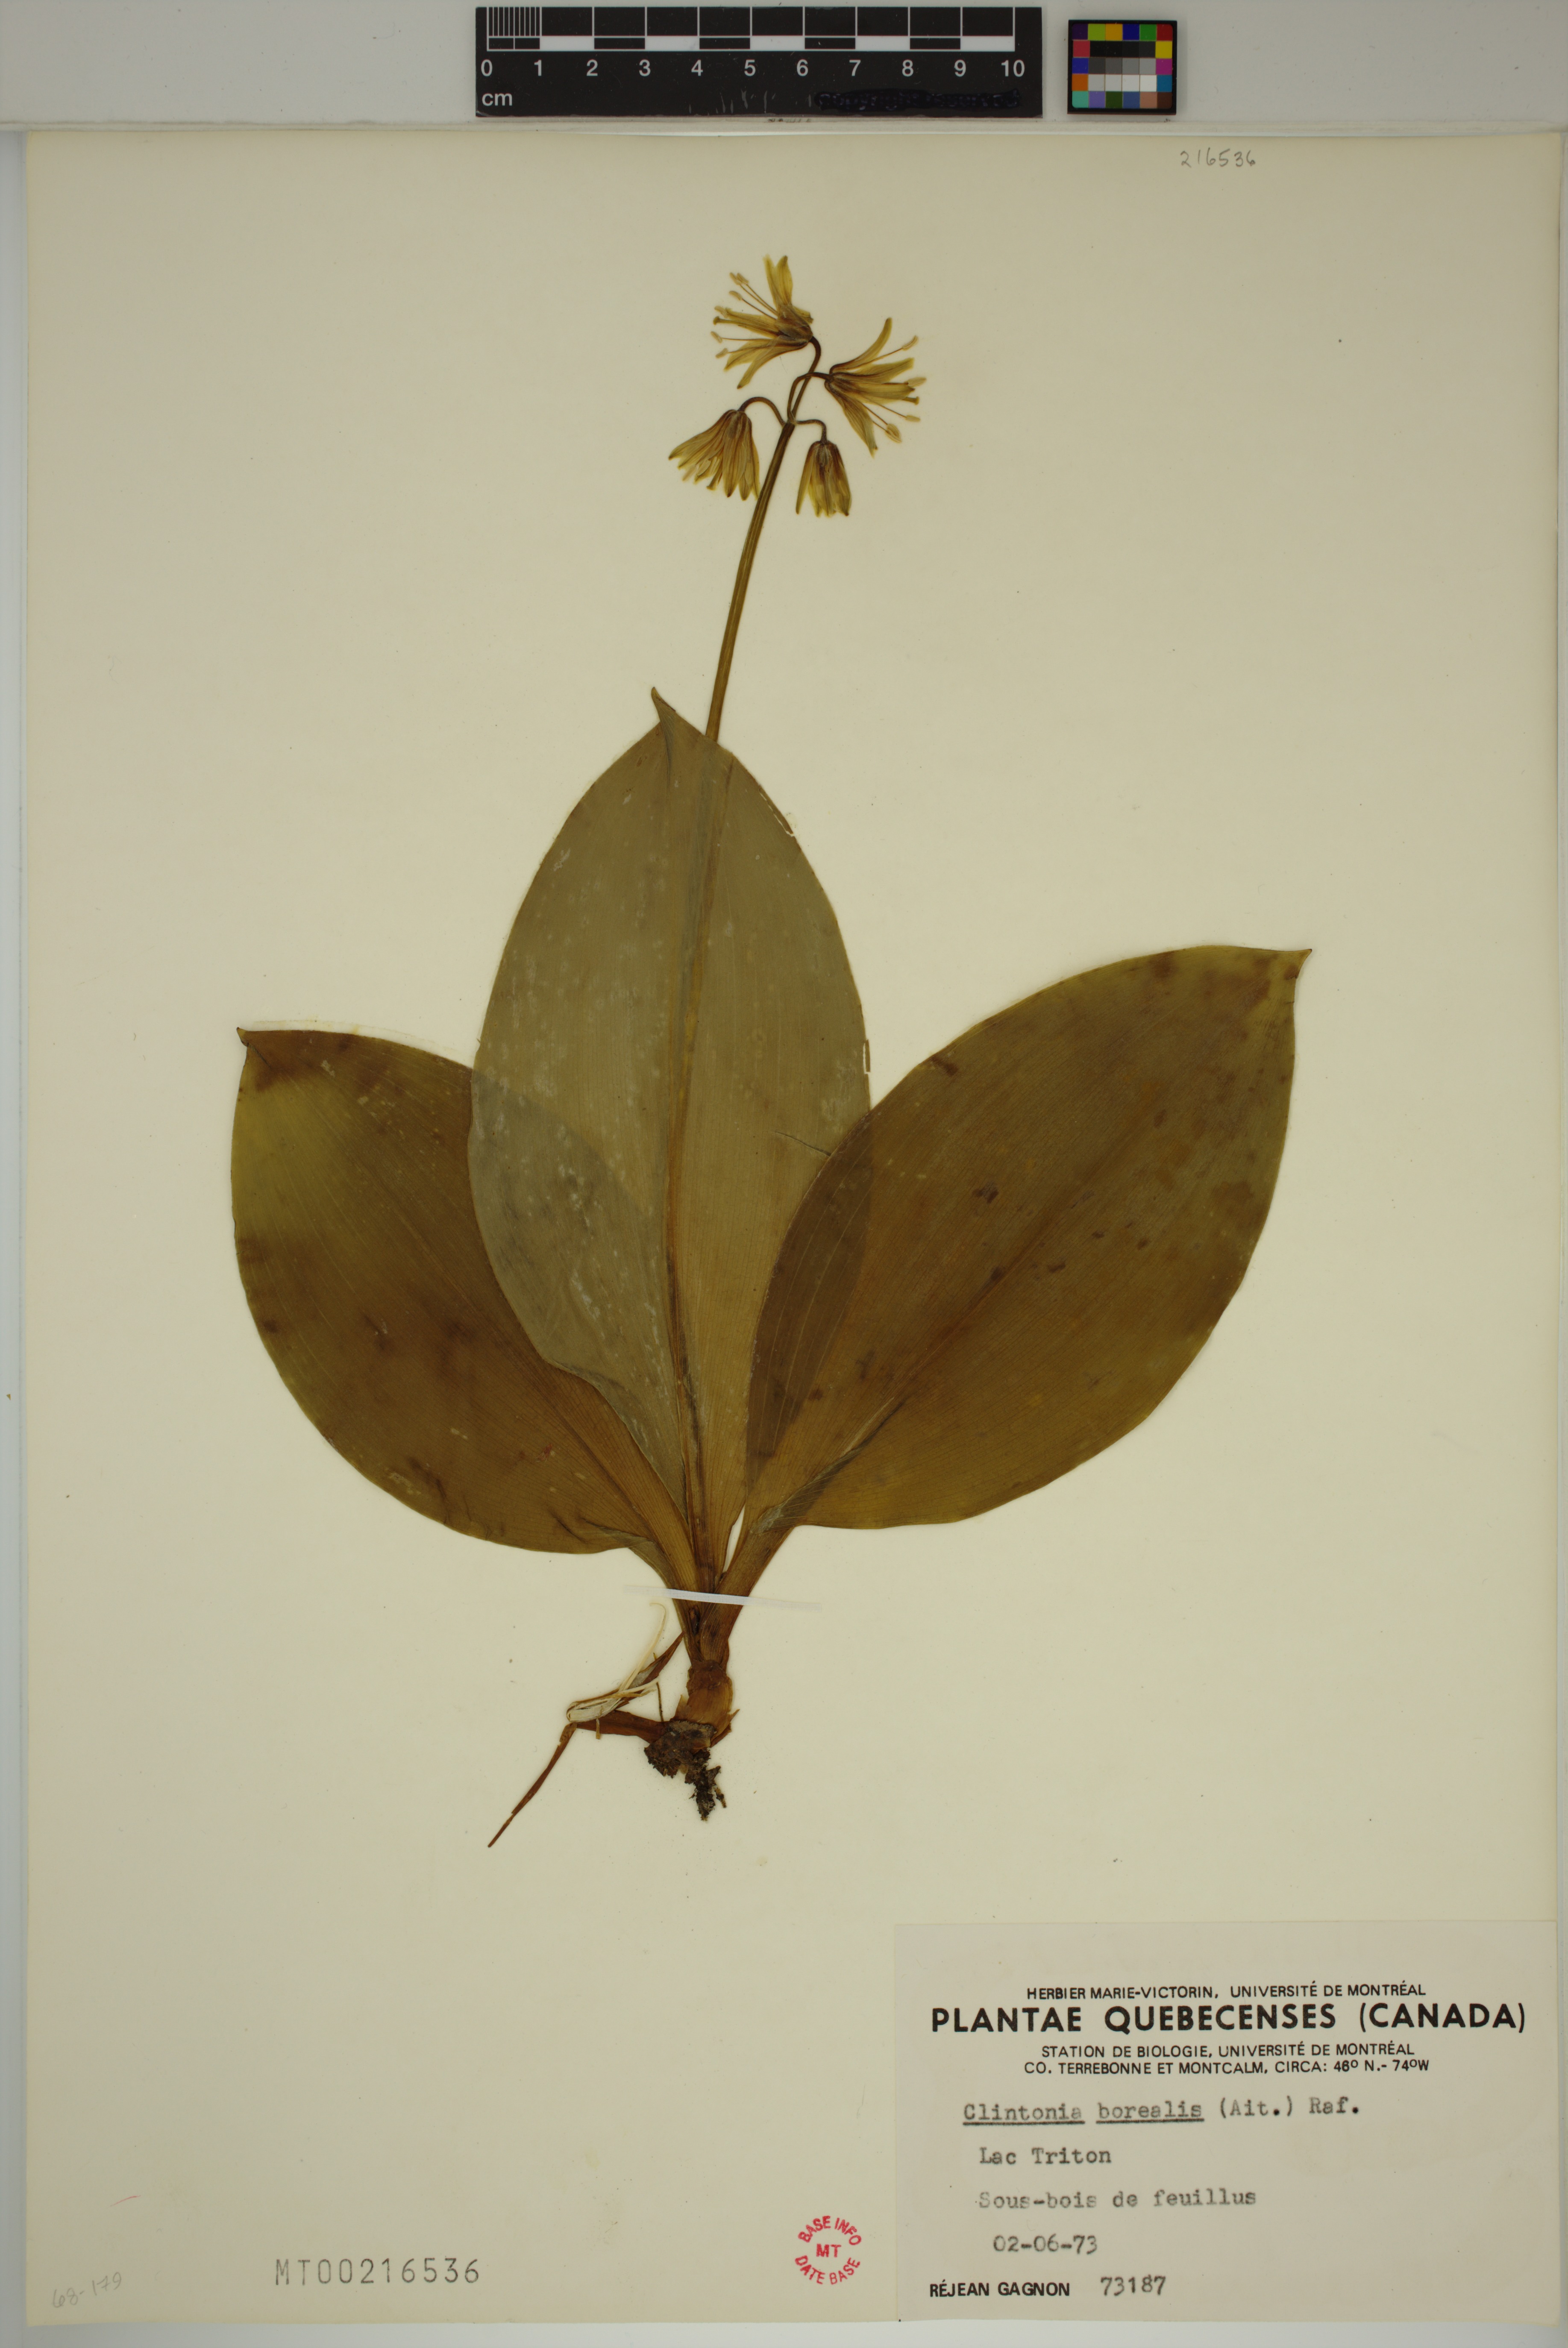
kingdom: Plantae
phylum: Tracheophyta
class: Liliopsida
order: Liliales
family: Liliaceae
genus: Clintonia
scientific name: Clintonia borealis
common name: Yellow clintonia
